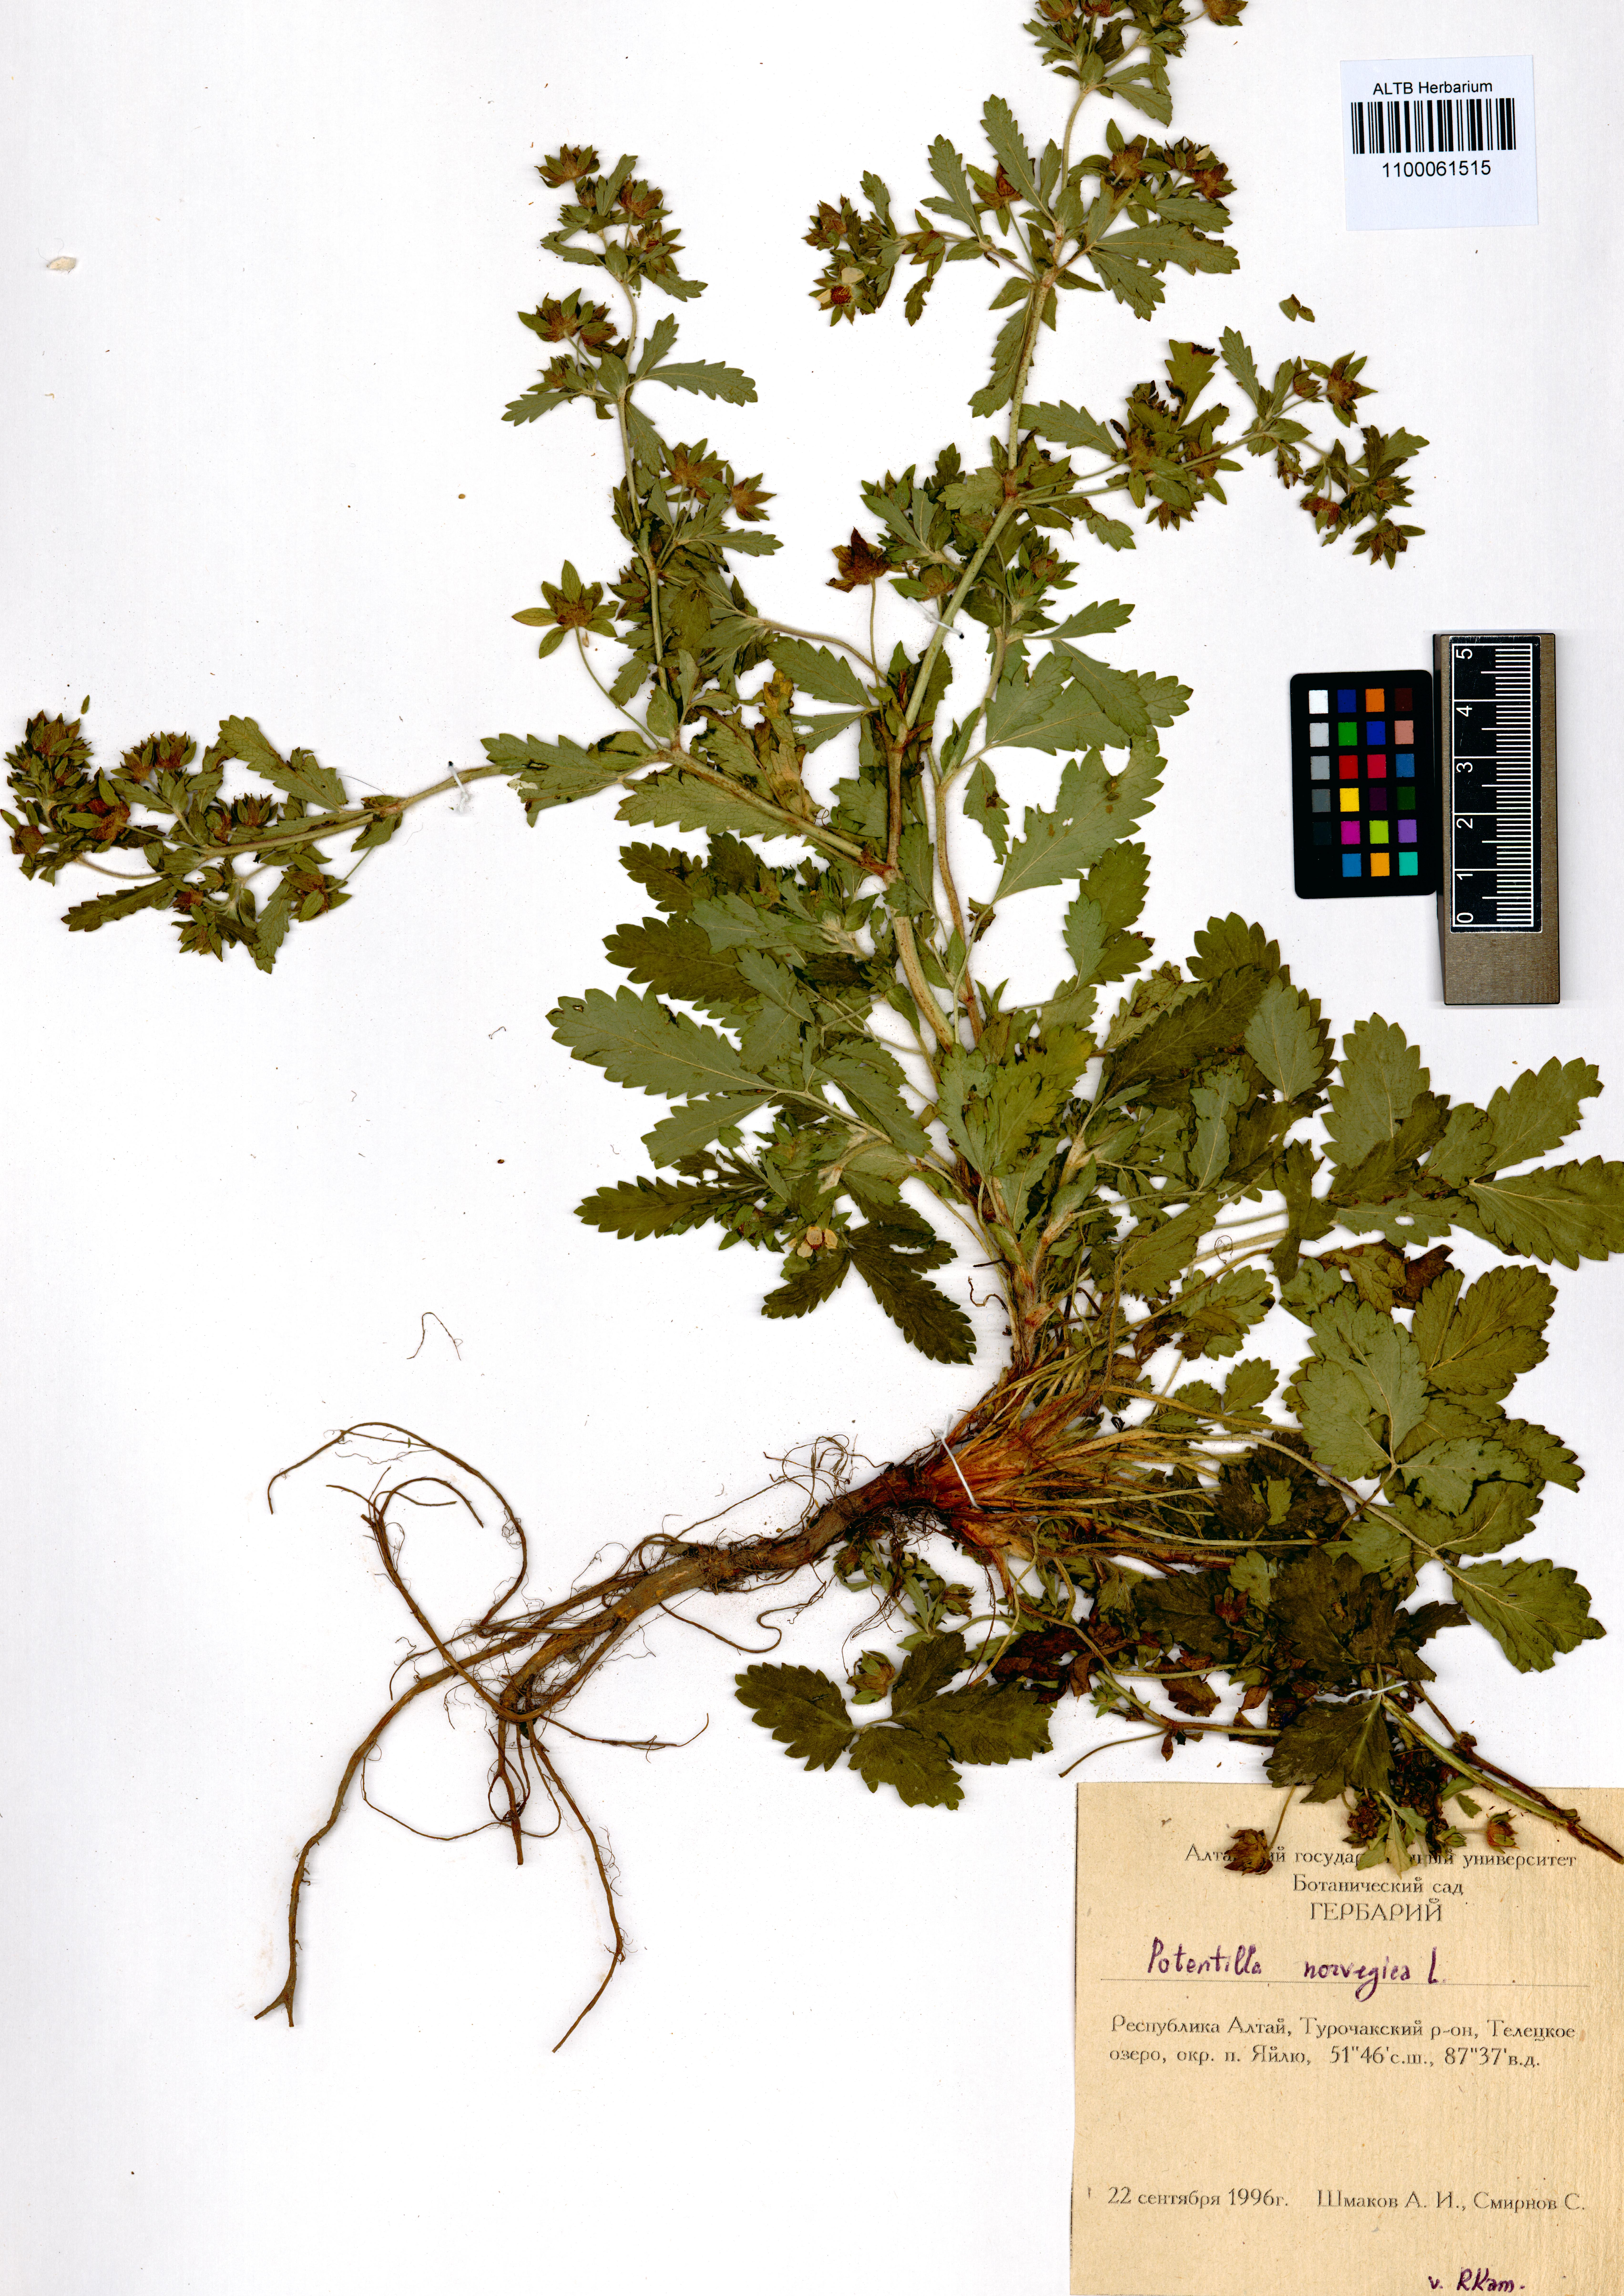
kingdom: Plantae
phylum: Tracheophyta
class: Magnoliopsida
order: Rosales
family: Rosaceae
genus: Potentilla
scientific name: Potentilla norvegica
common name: Ternate-leaved cinquefoil
